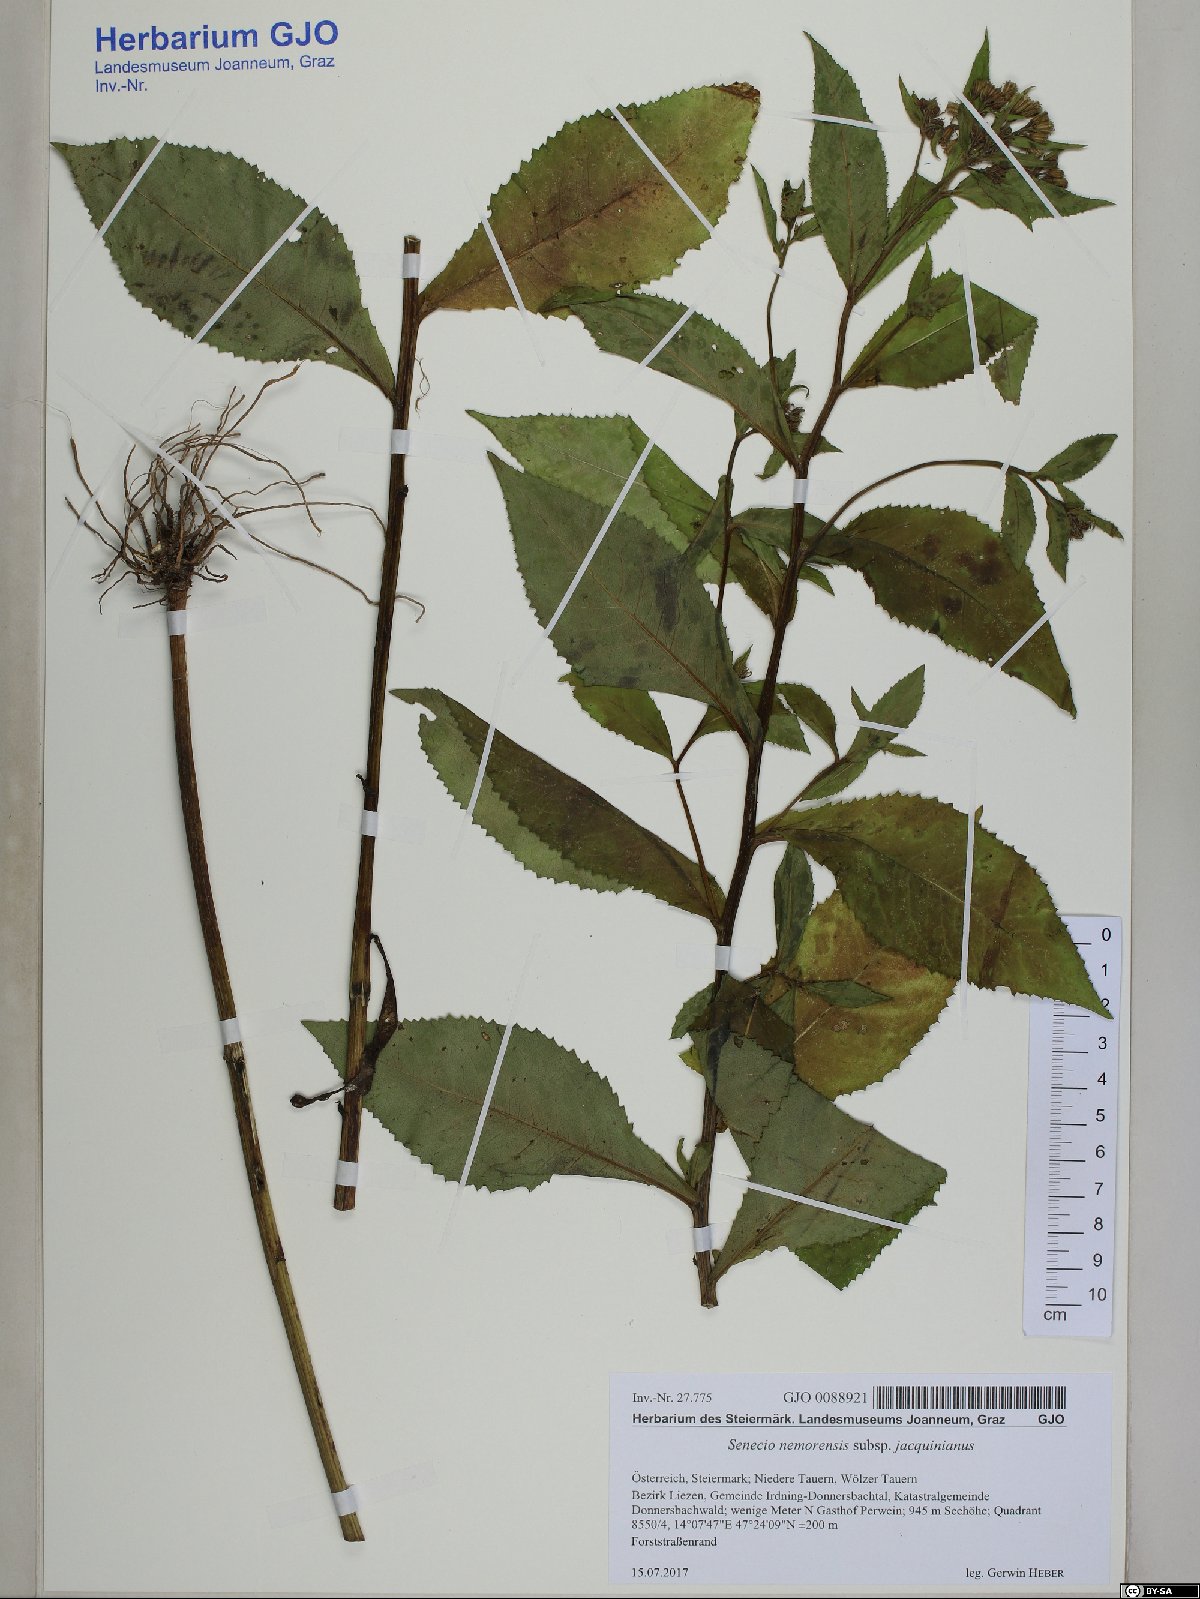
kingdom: Plantae
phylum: Tracheophyta
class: Magnoliopsida
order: Asterales
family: Asteraceae
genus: Senecio
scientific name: Senecio germanicus
